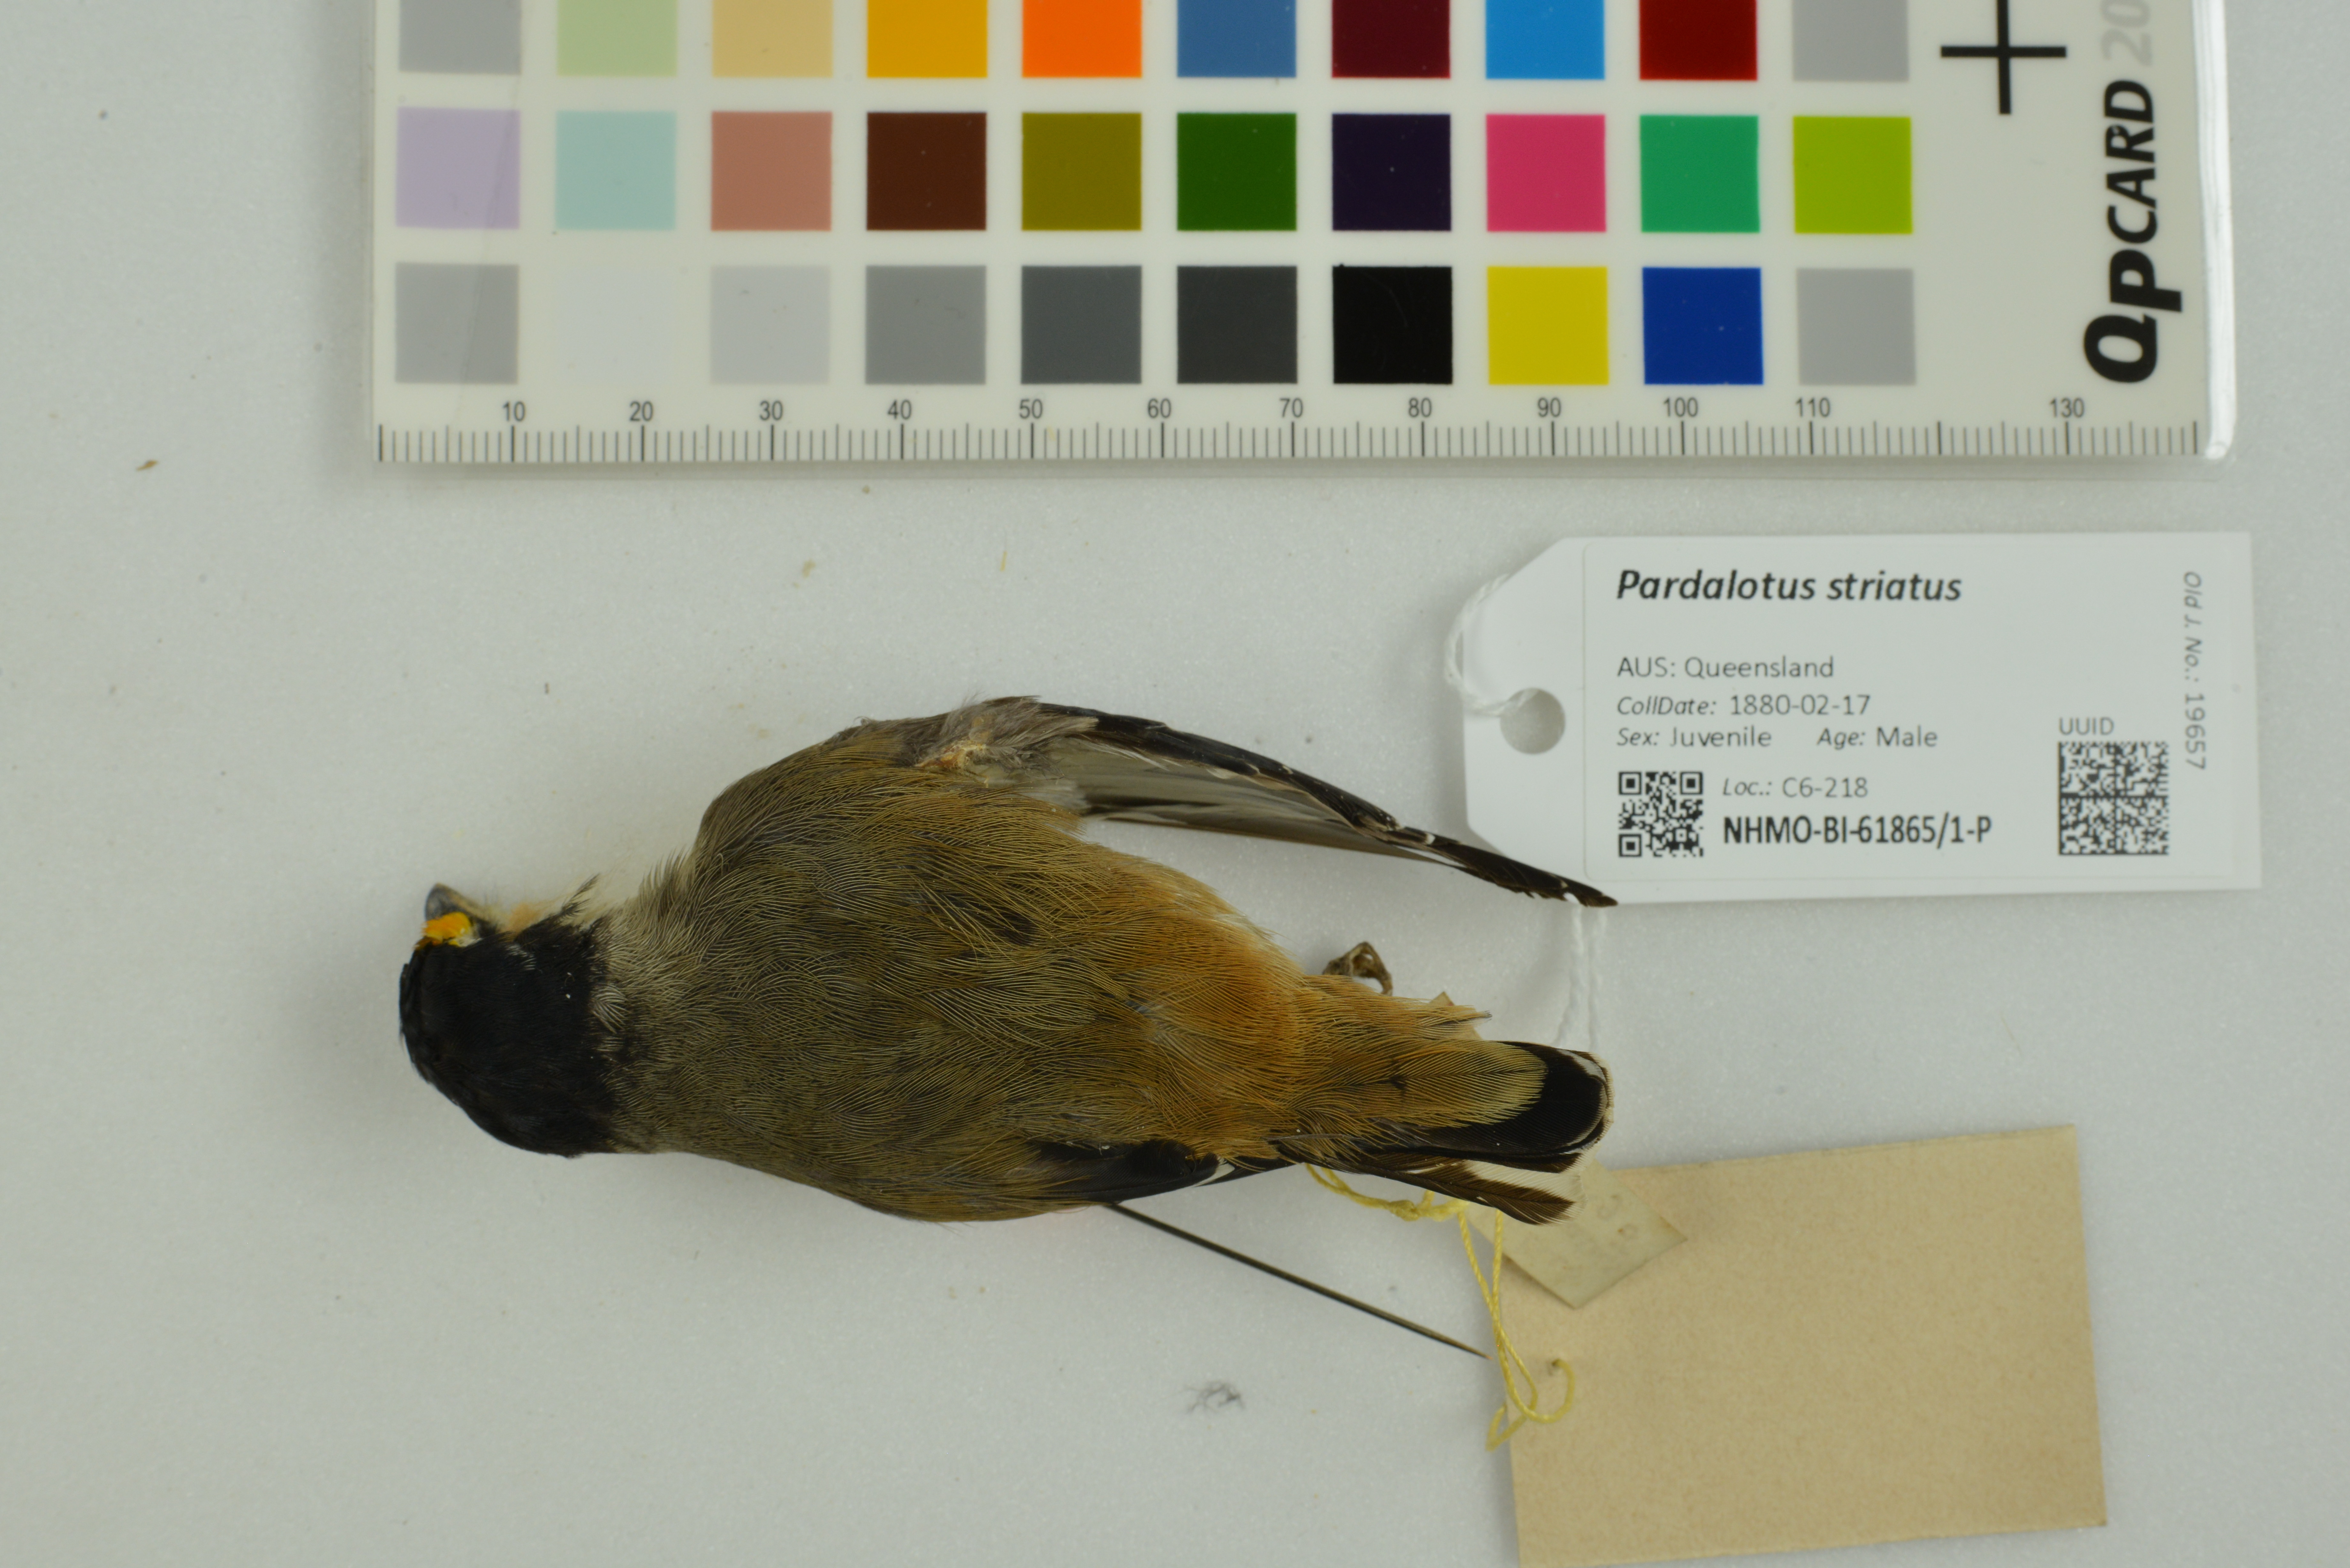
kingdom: Animalia
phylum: Chordata
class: Aves
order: Passeriformes
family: Pardalotidae
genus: Pardalotus
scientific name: Pardalotus striatus
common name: Striated pardalote
